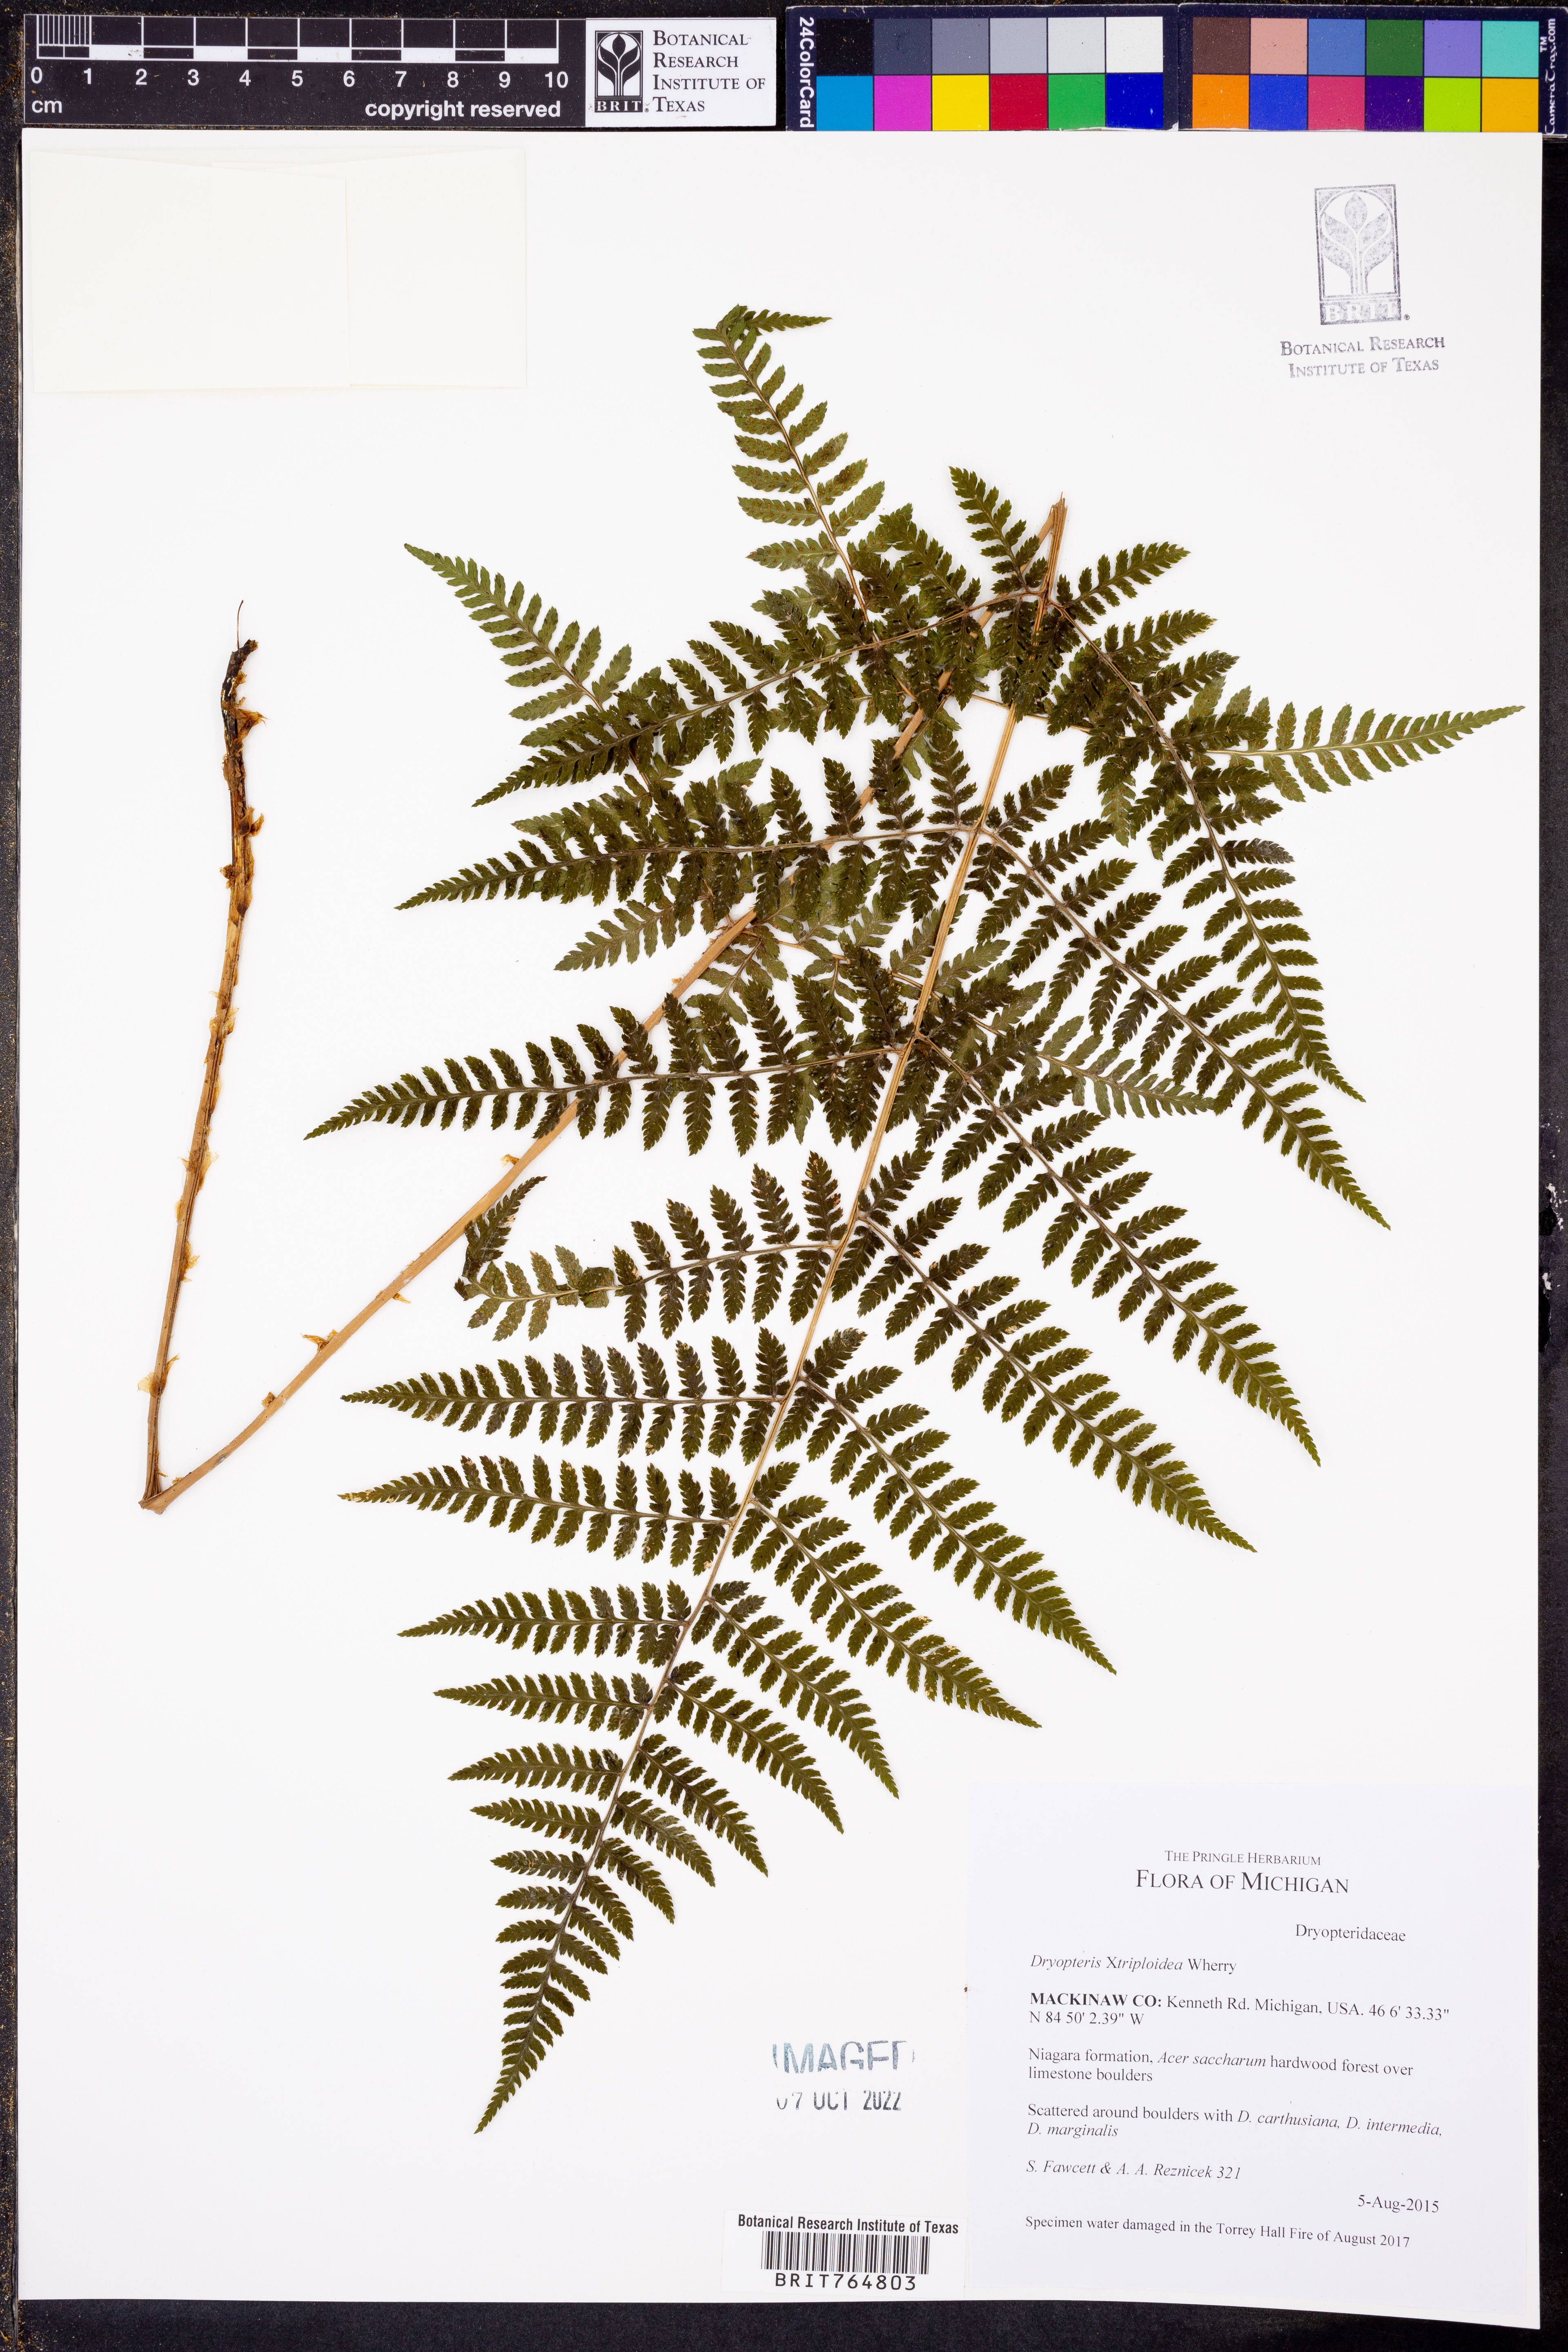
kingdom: Plantae
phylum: Tracheophyta
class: Polypodiopsida
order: Polypodiales
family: Dryopteridaceae
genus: Dryopteris
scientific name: Dryopteris
